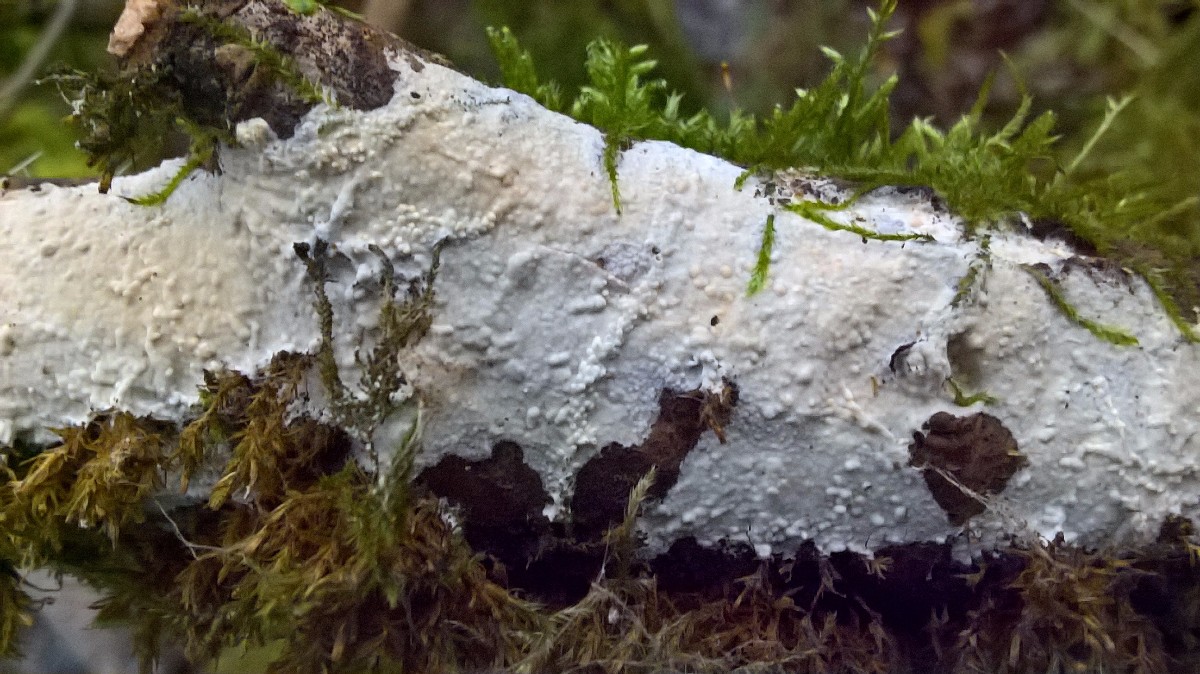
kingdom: Fungi
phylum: Basidiomycota
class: Agaricomycetes
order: Corticiales
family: Corticiaceae
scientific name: Corticiaceae
